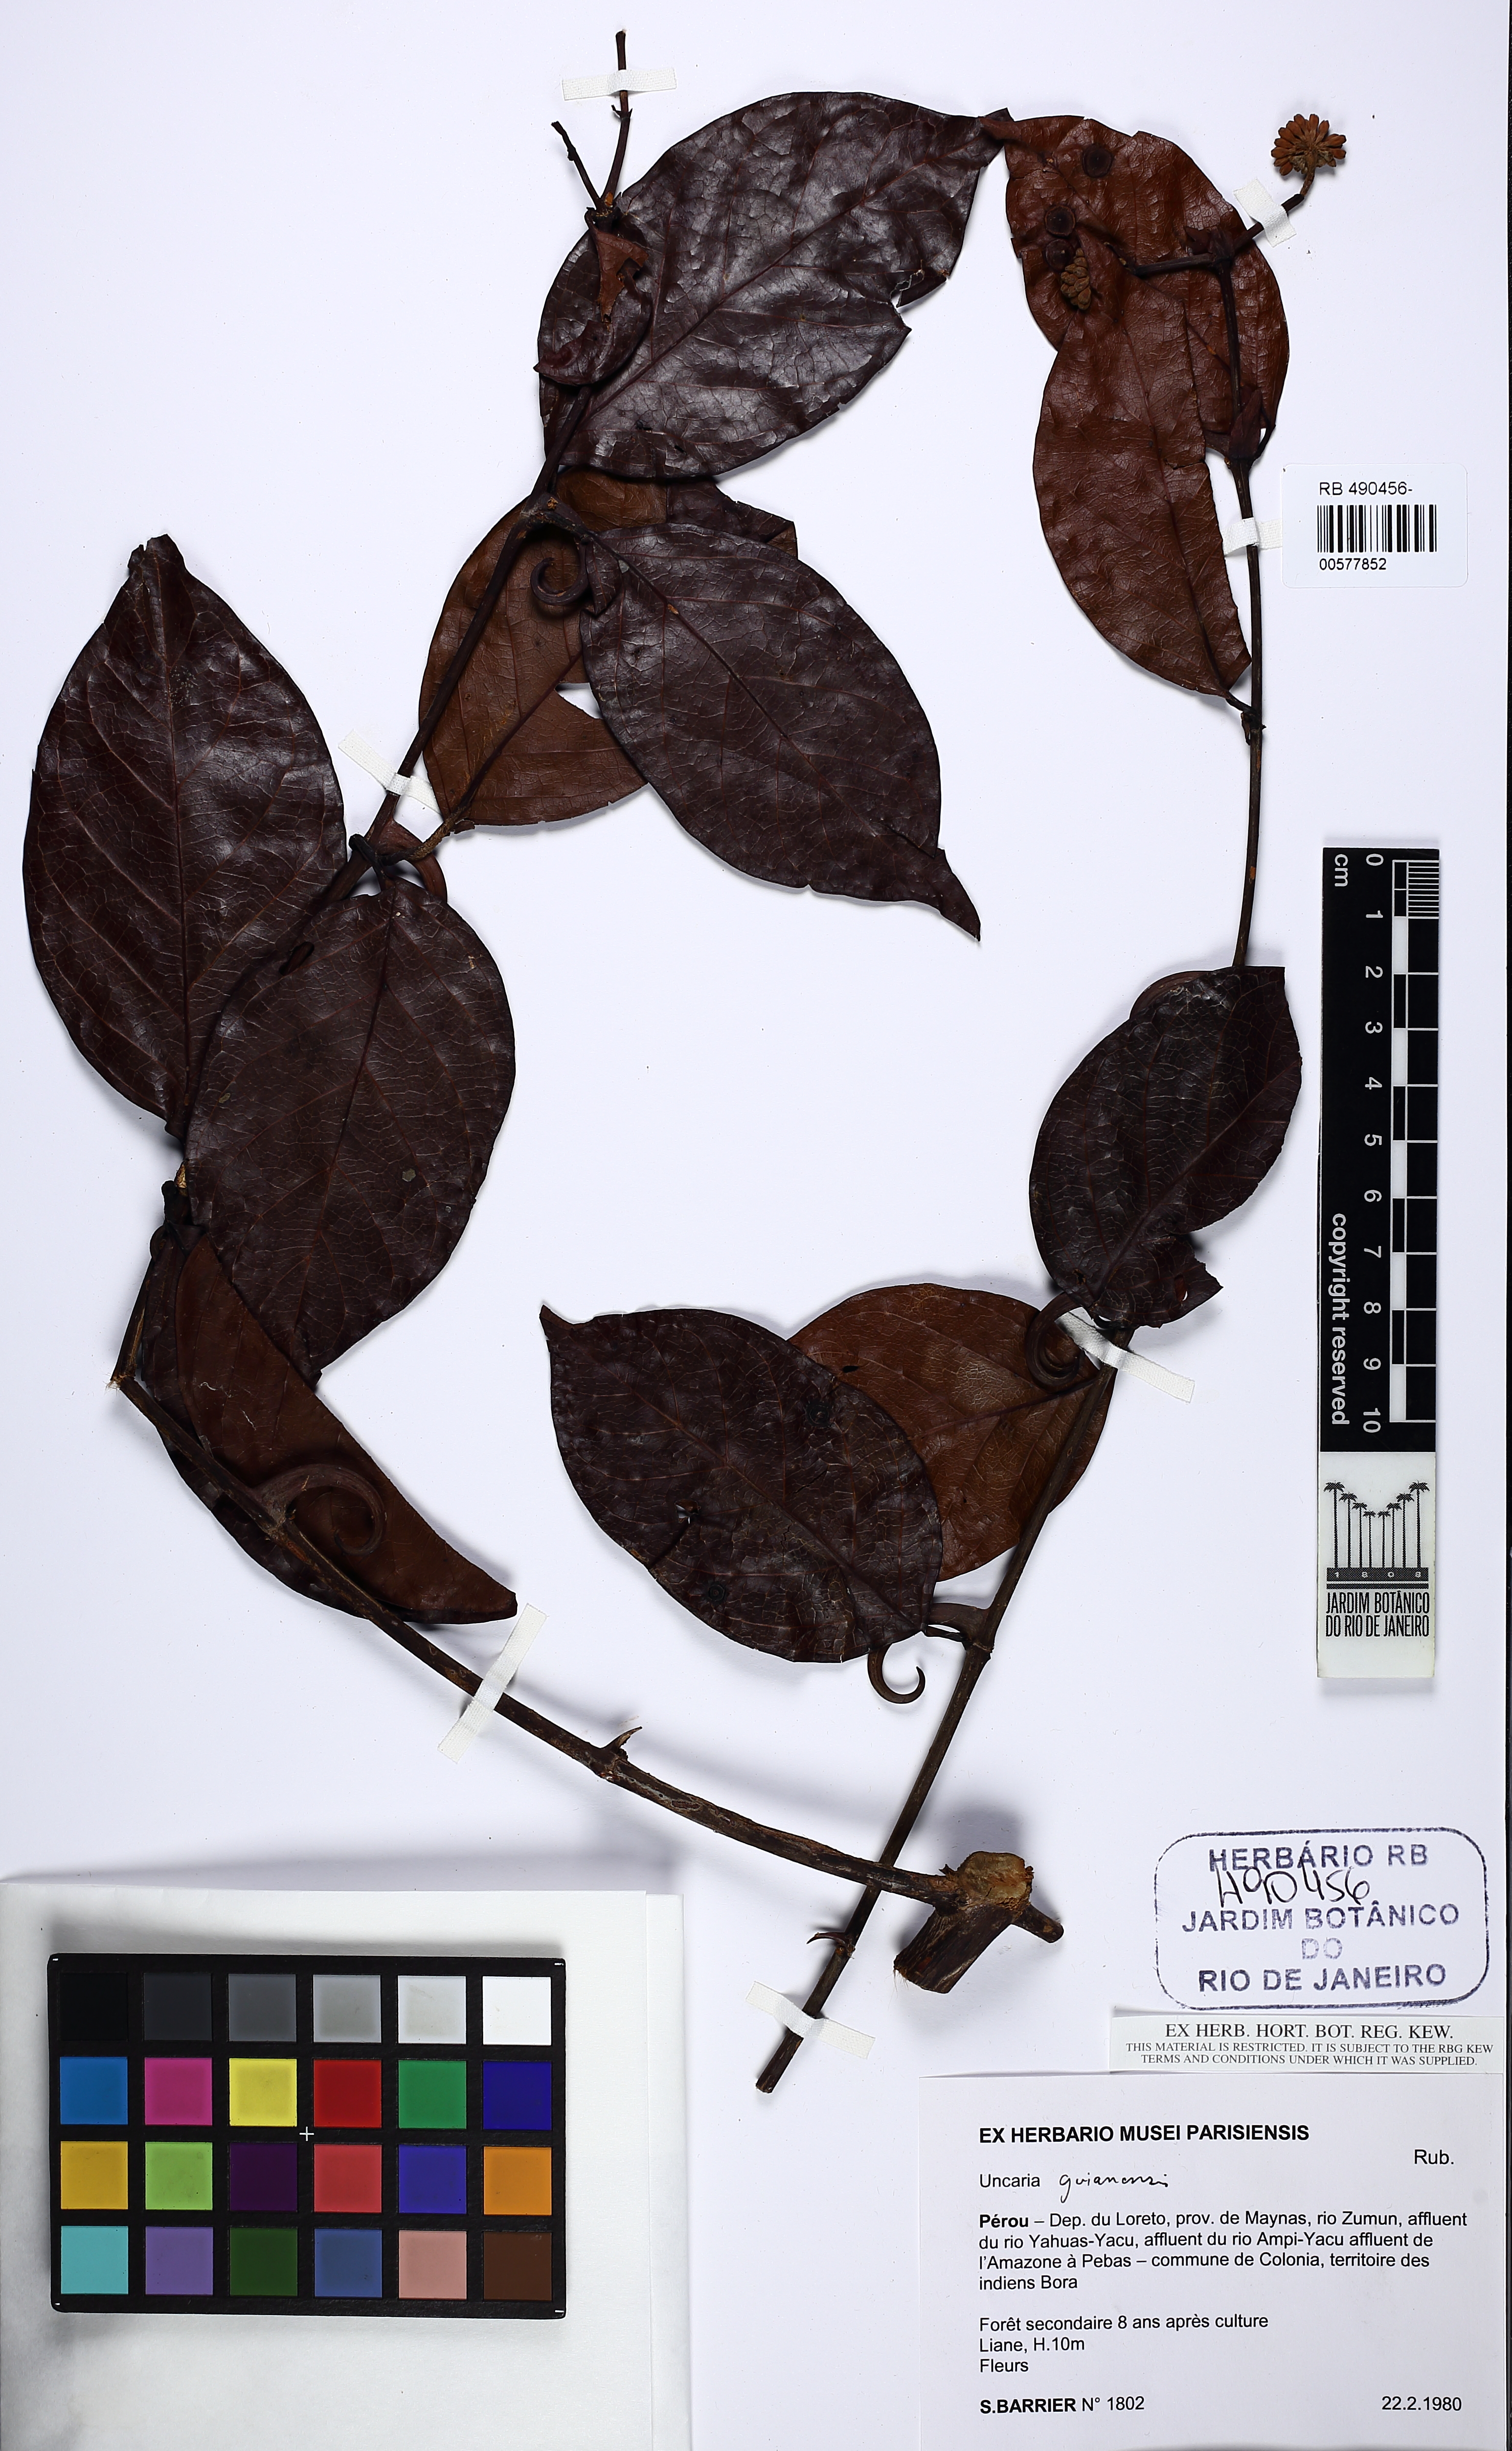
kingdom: Plantae
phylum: Tracheophyta
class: Magnoliopsida
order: Gentianales
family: Rubiaceae
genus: Uncaria
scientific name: Uncaria guianensis
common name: Cat's-claw
